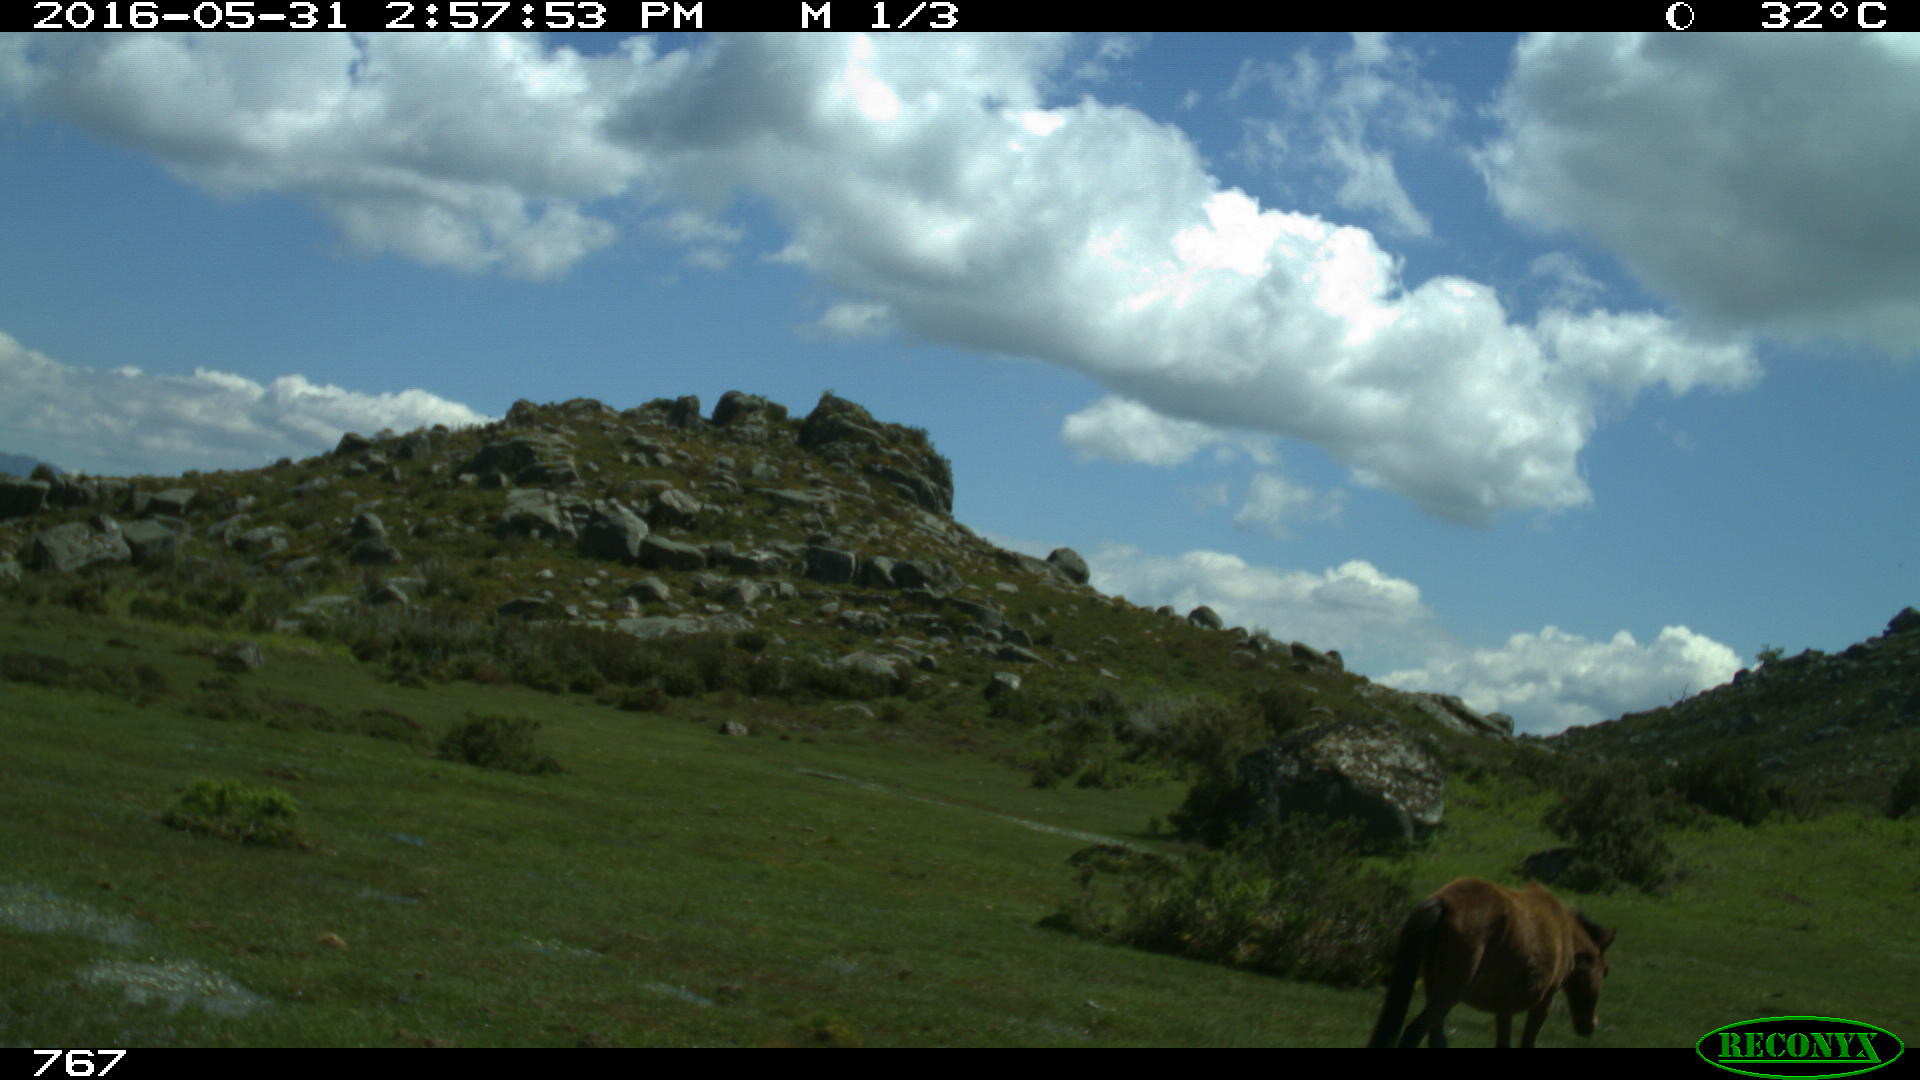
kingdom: Animalia
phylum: Chordata
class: Mammalia
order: Perissodactyla
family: Equidae
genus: Equus
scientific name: Equus caballus
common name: Horse
